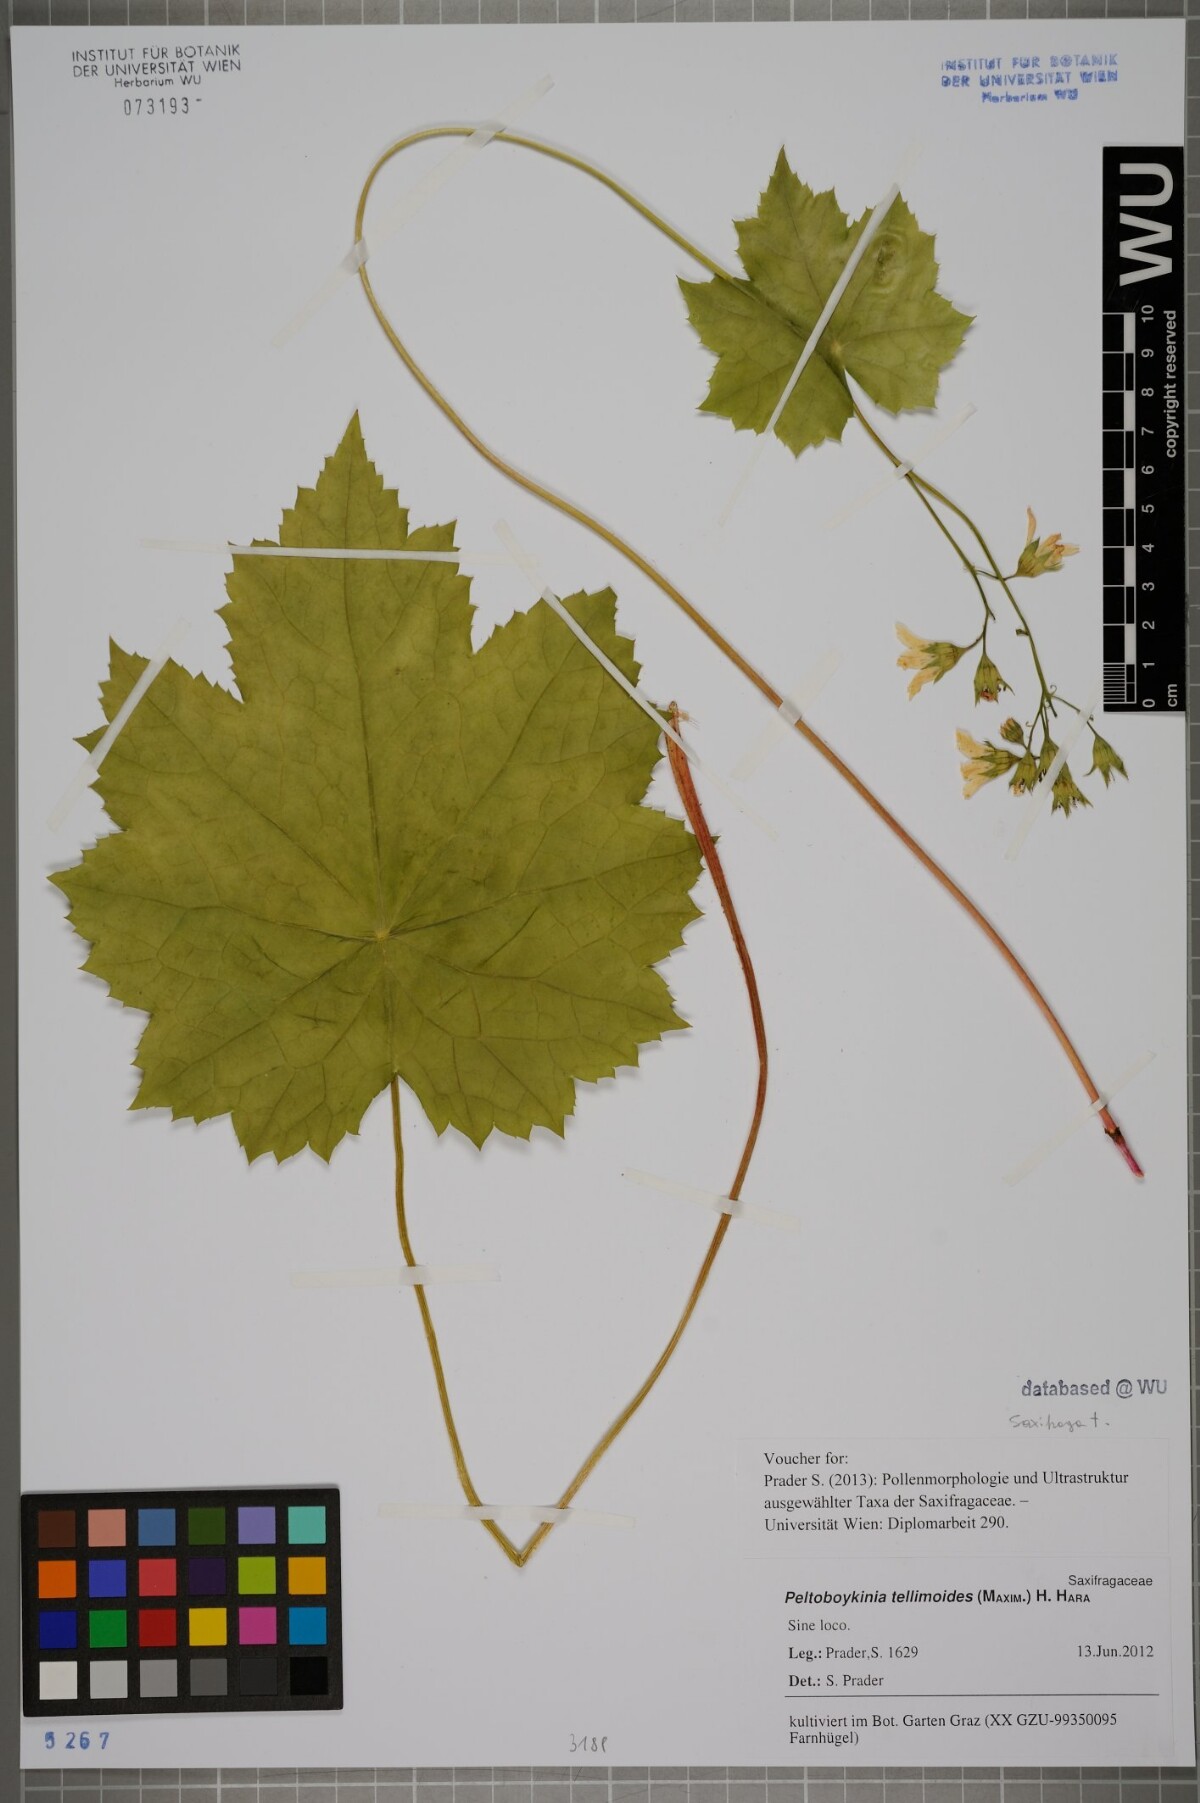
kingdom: Plantae
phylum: Tracheophyta
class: Magnoliopsida
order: Saxifragales
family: Saxifragaceae
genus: Peltoboykinia
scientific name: Peltoboykinia tellimoides
